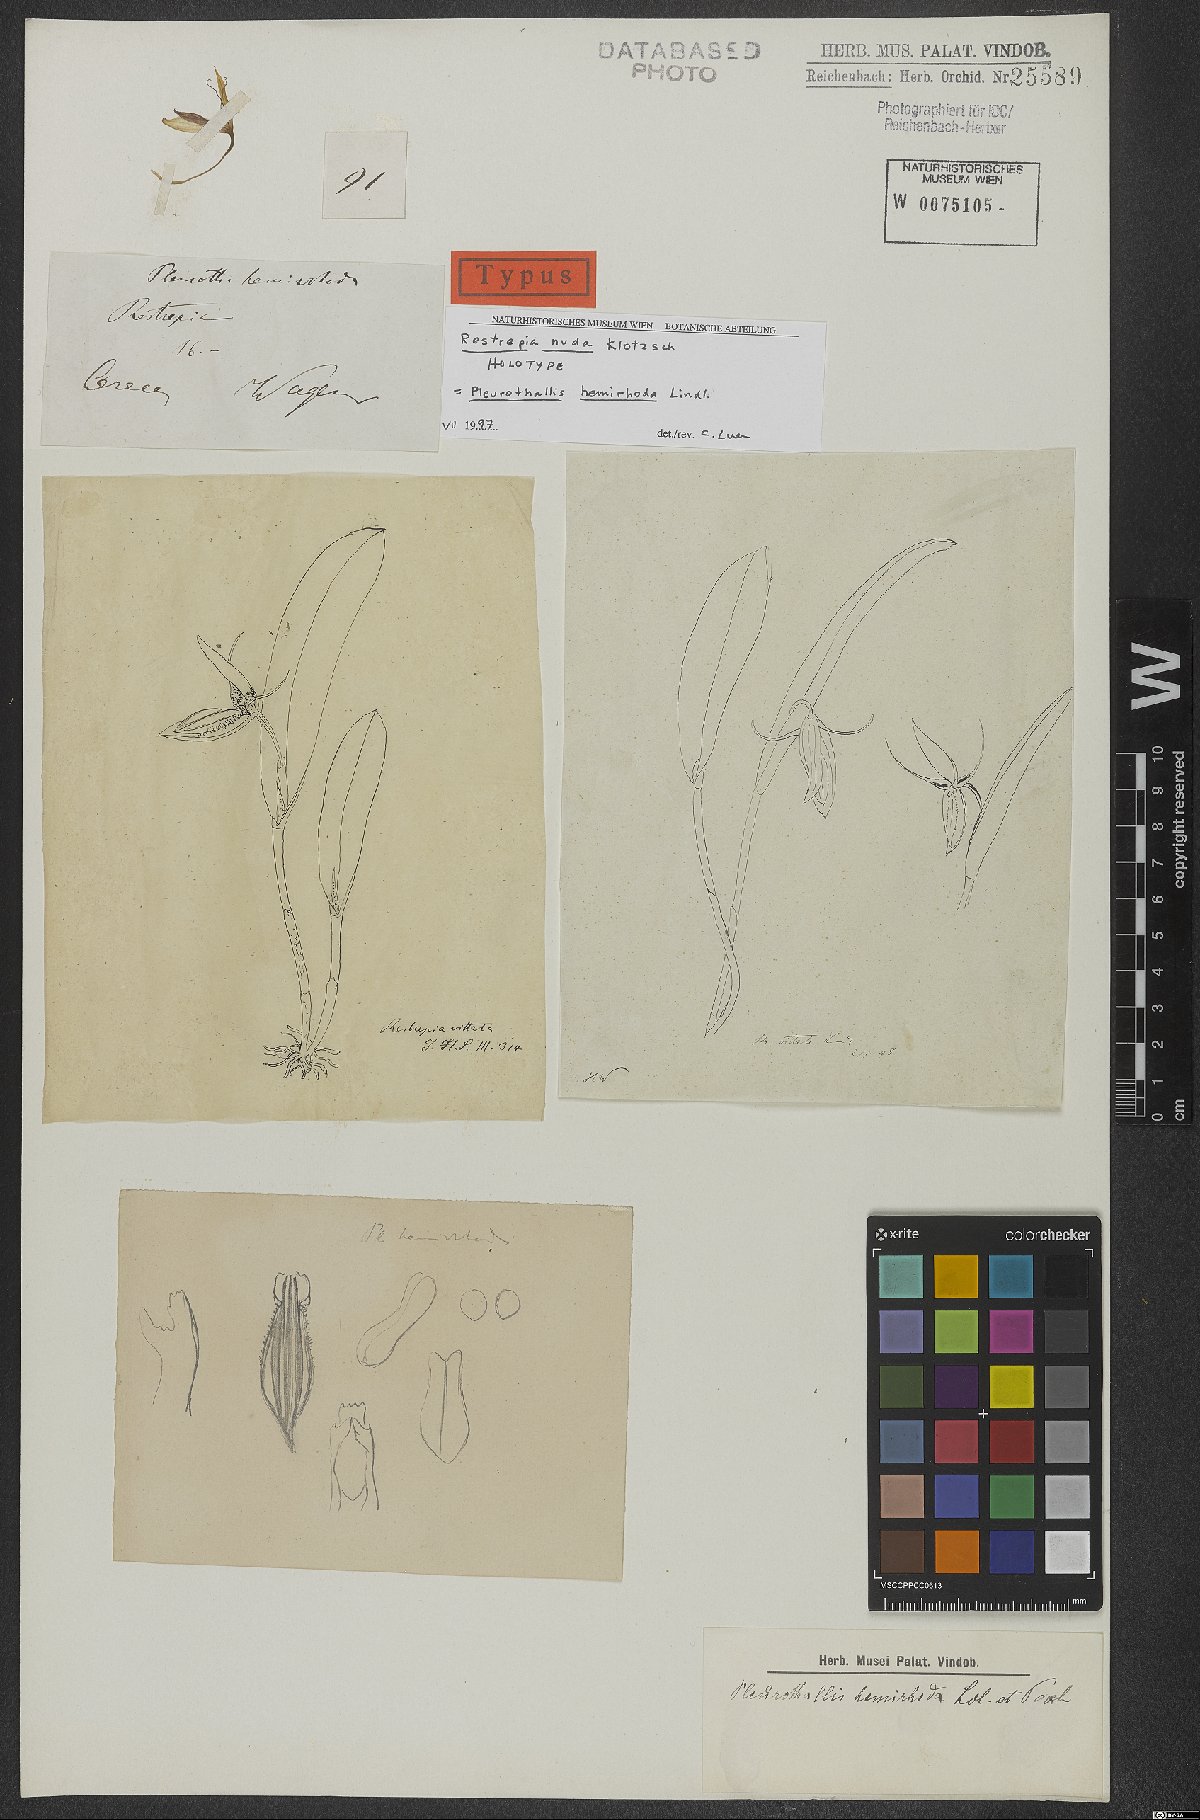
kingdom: Plantae
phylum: Tracheophyta
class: Liliopsida
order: Asparagales
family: Orchidaceae
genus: Pleurothallis
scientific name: Pleurothallis nuda
